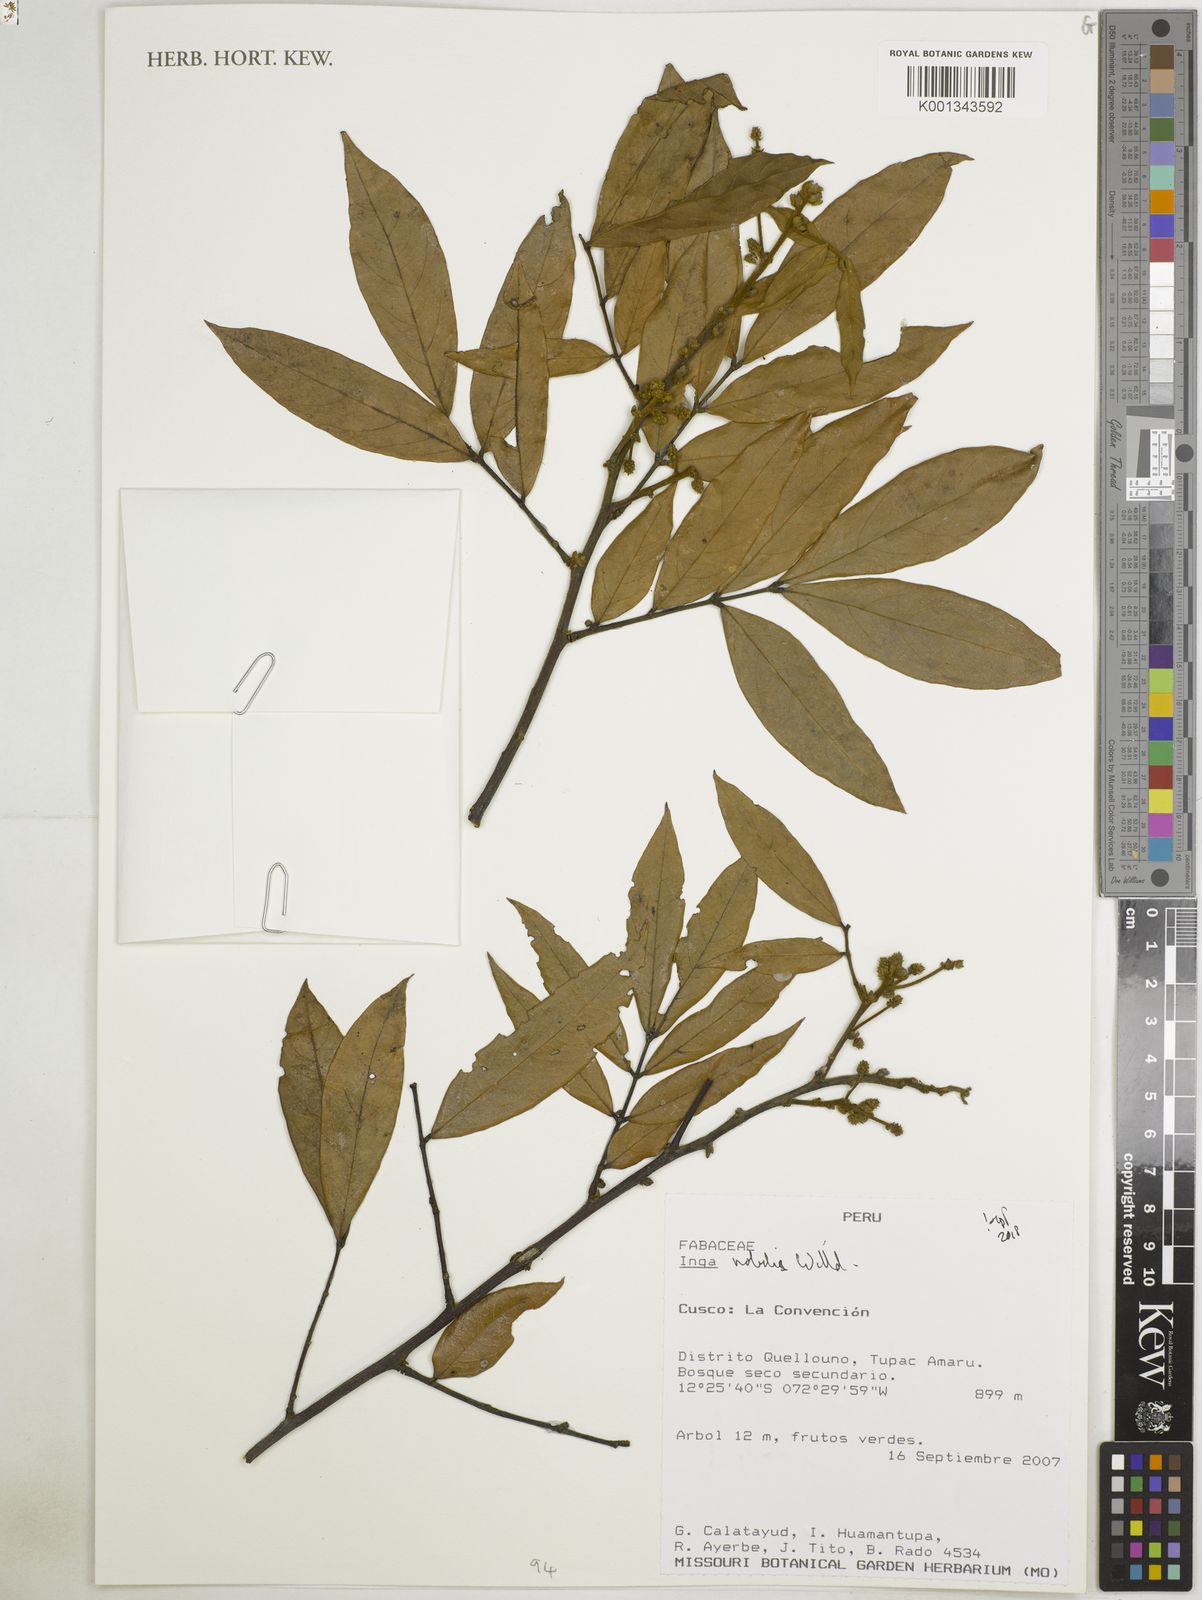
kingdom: Plantae
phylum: Tracheophyta
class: Magnoliopsida
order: Fabales
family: Fabaceae
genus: Inga
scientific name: Inga nobilis
